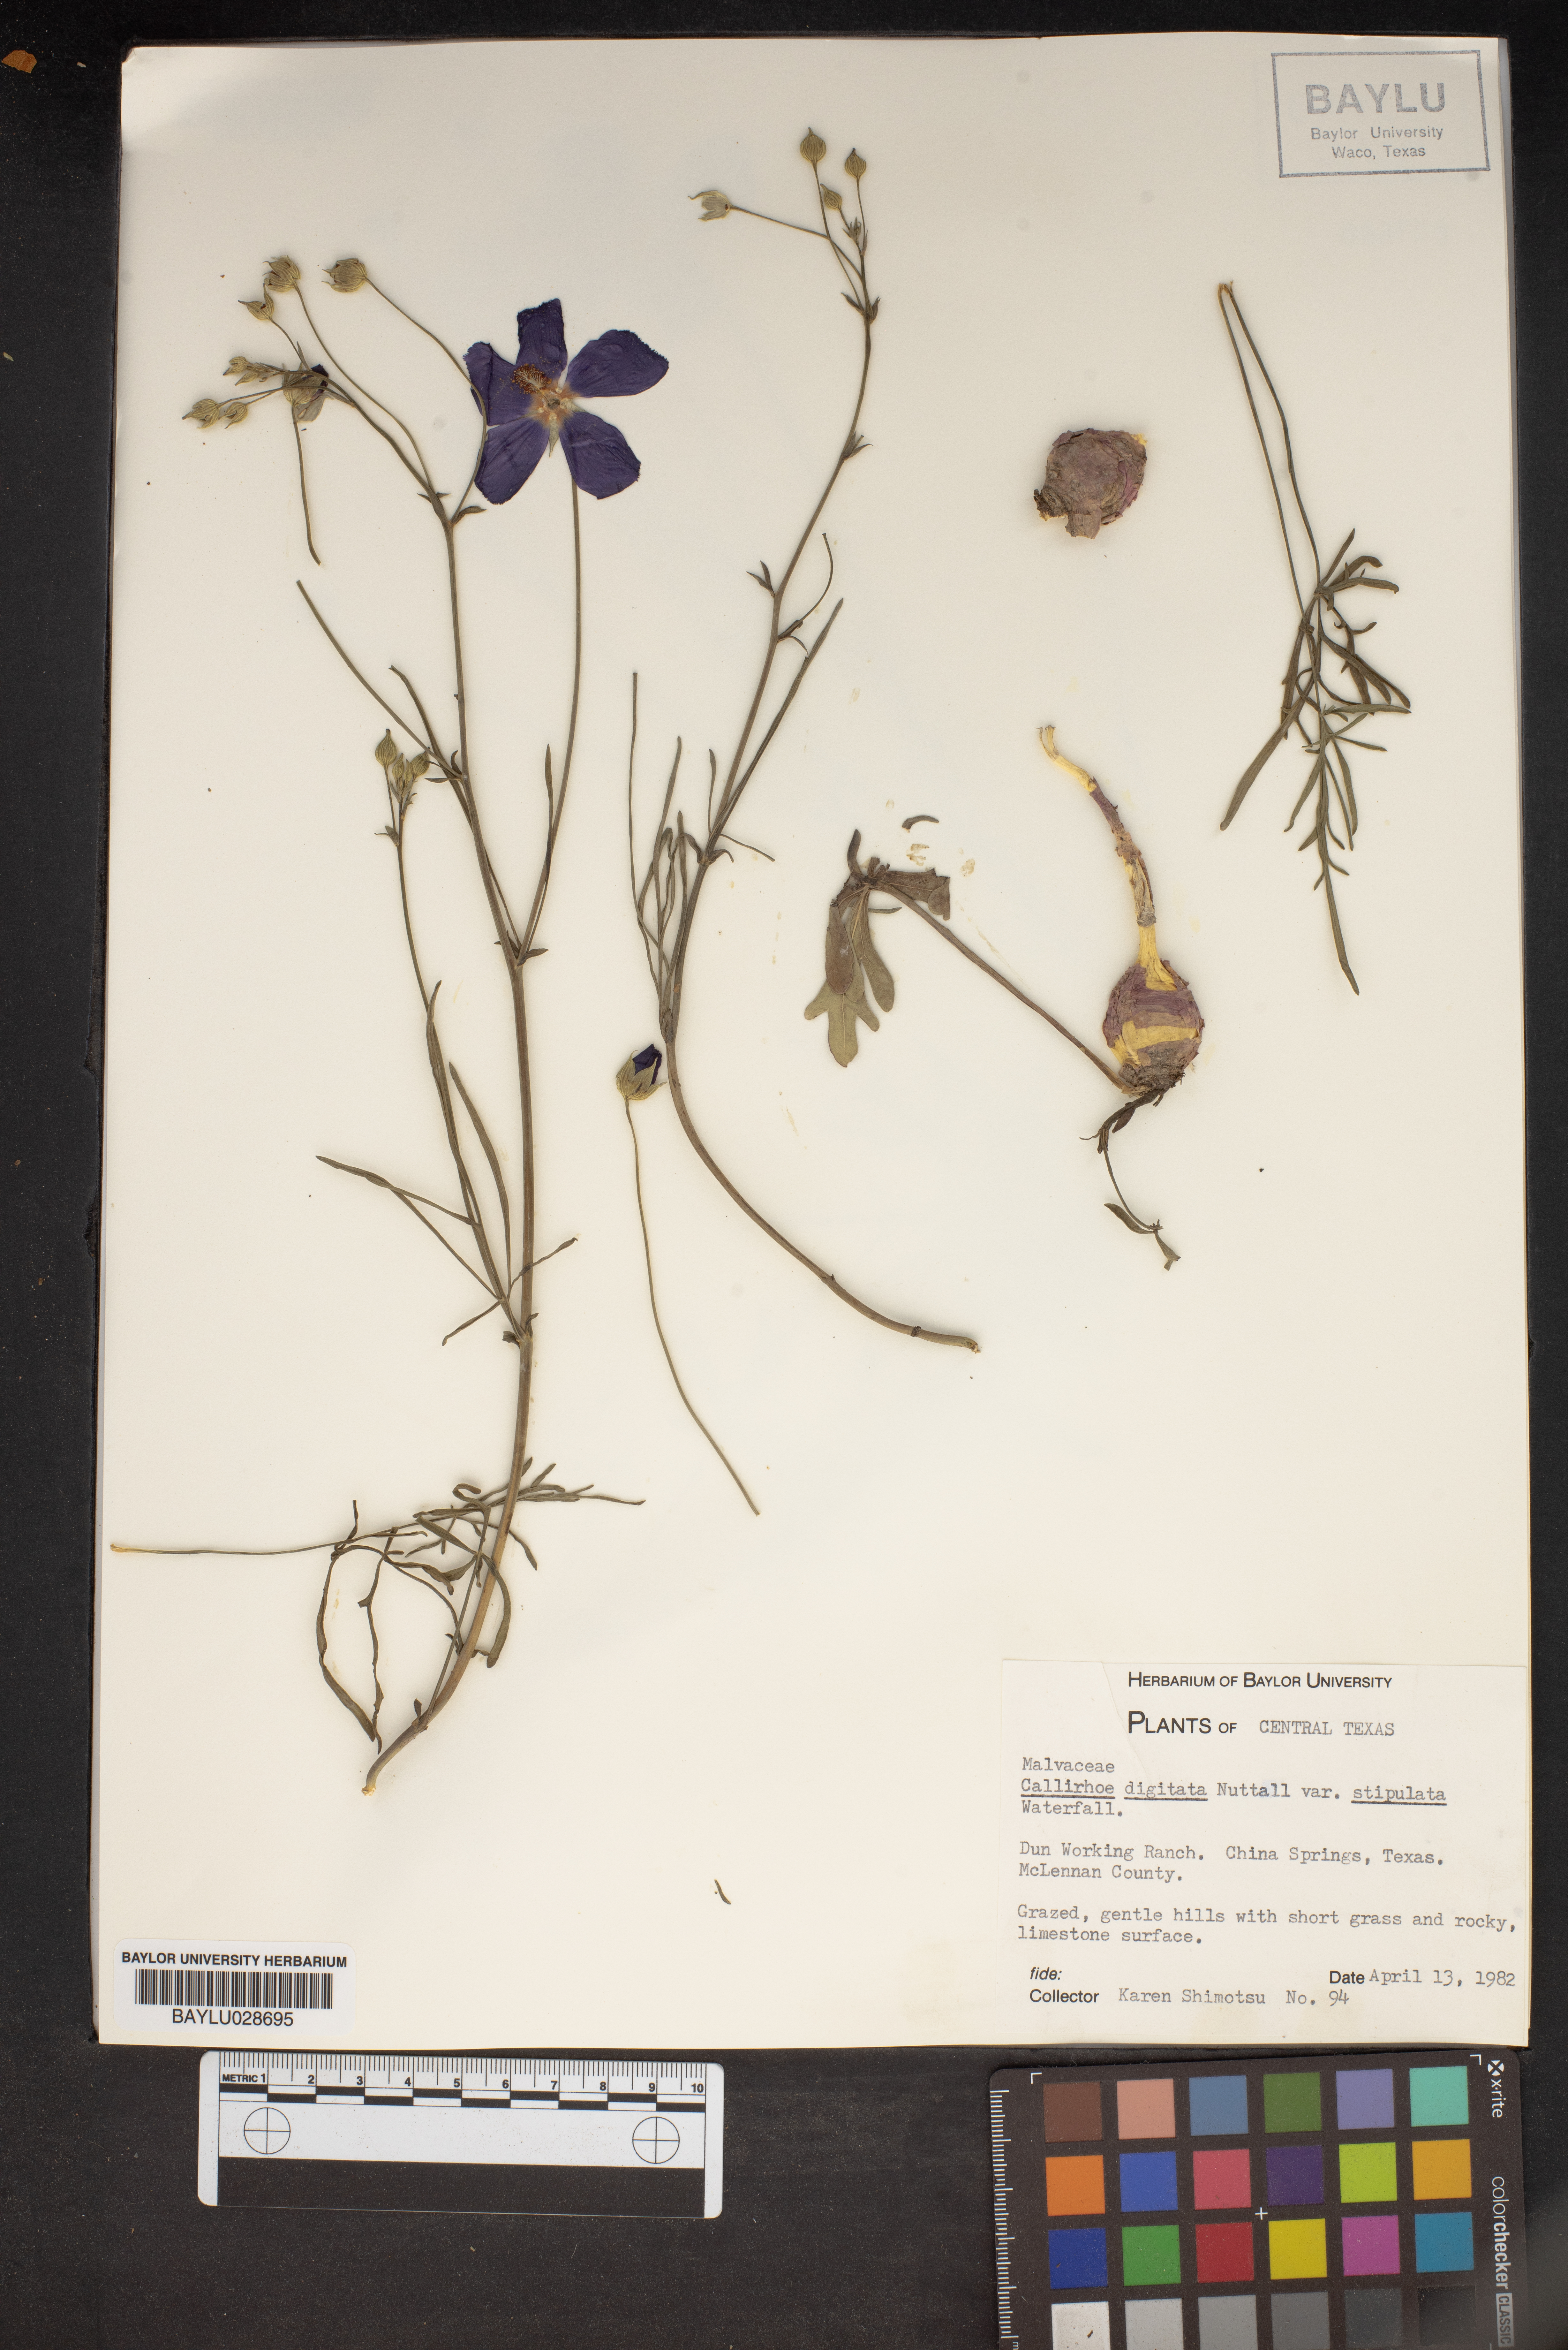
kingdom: Plantae
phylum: Tracheophyta
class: Magnoliopsida
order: Malvales
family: Malvaceae
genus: Callirhoe
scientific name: Callirhoe pedata
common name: Finger poppy-mallow
